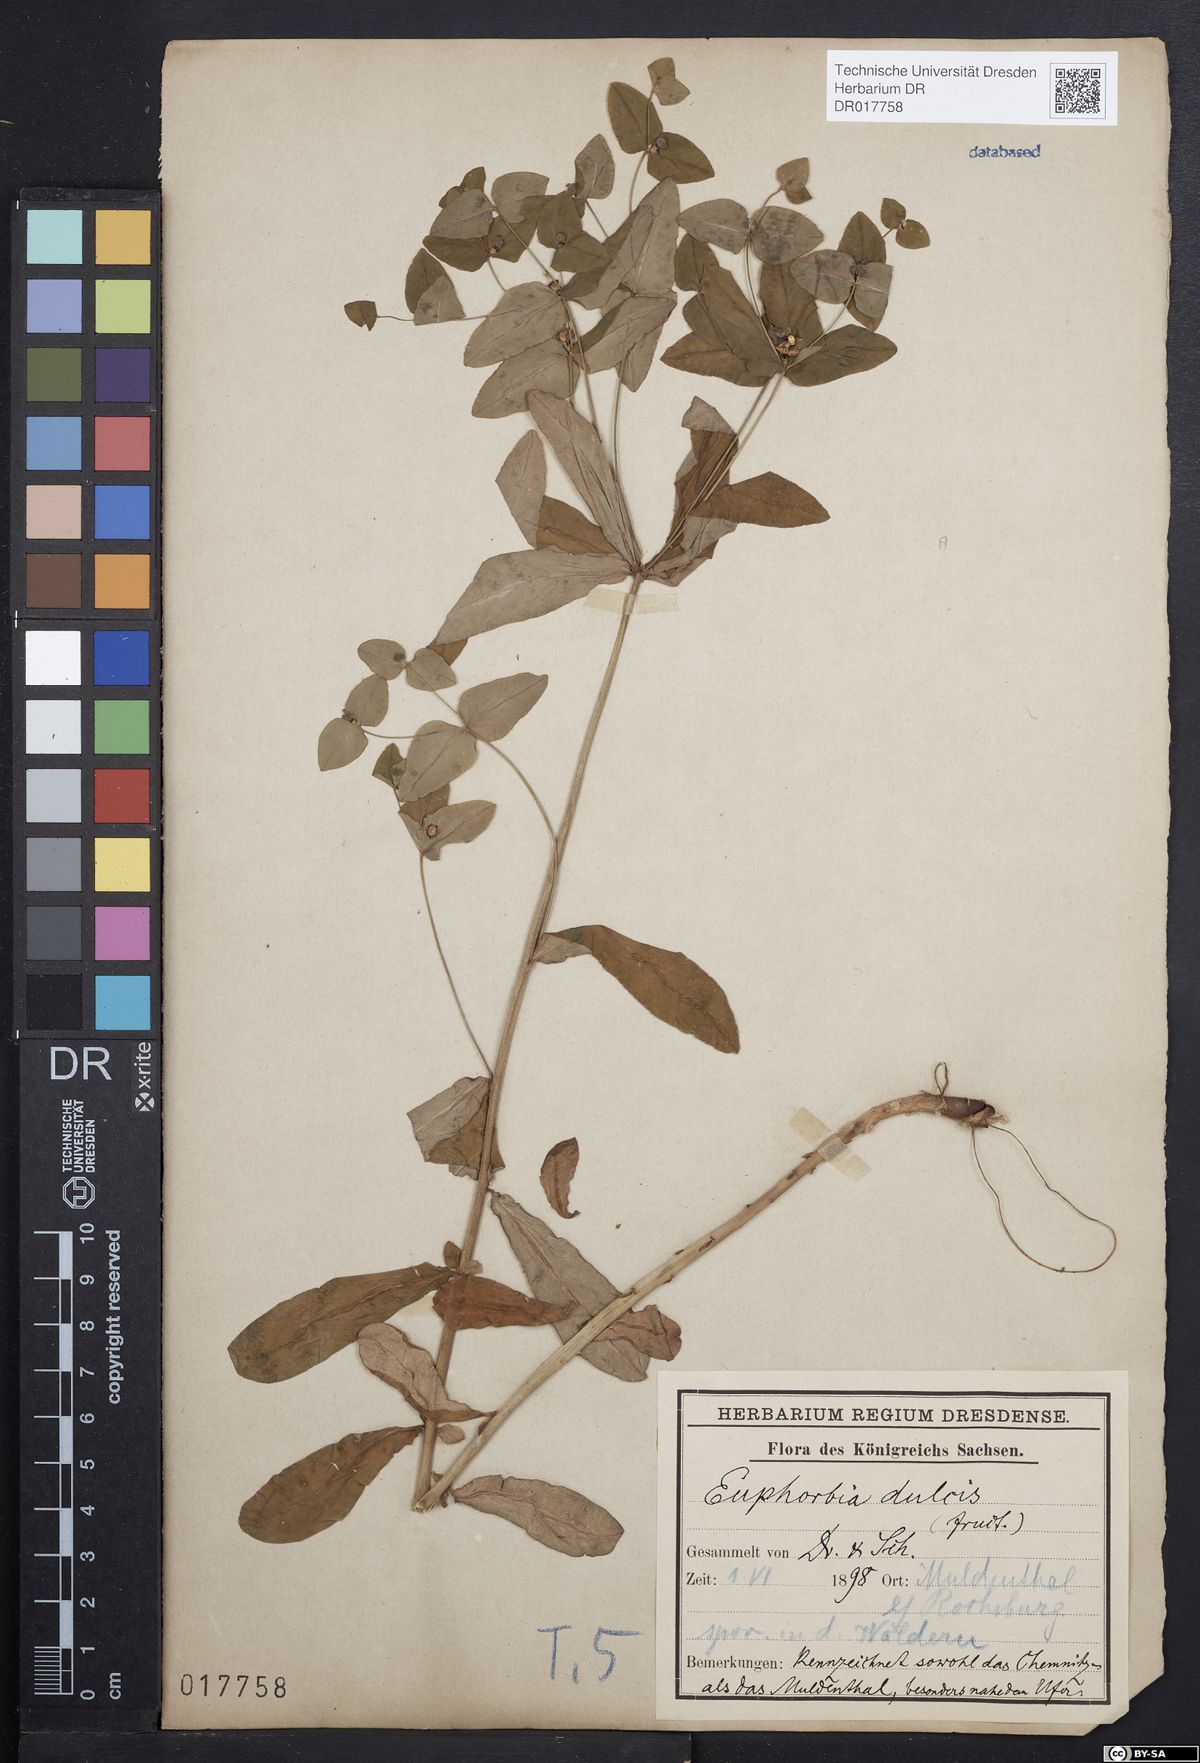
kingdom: Plantae
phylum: Tracheophyta
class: Magnoliopsida
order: Malpighiales
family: Euphorbiaceae
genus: Euphorbia
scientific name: Euphorbia dulcis
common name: Sweet spurge
